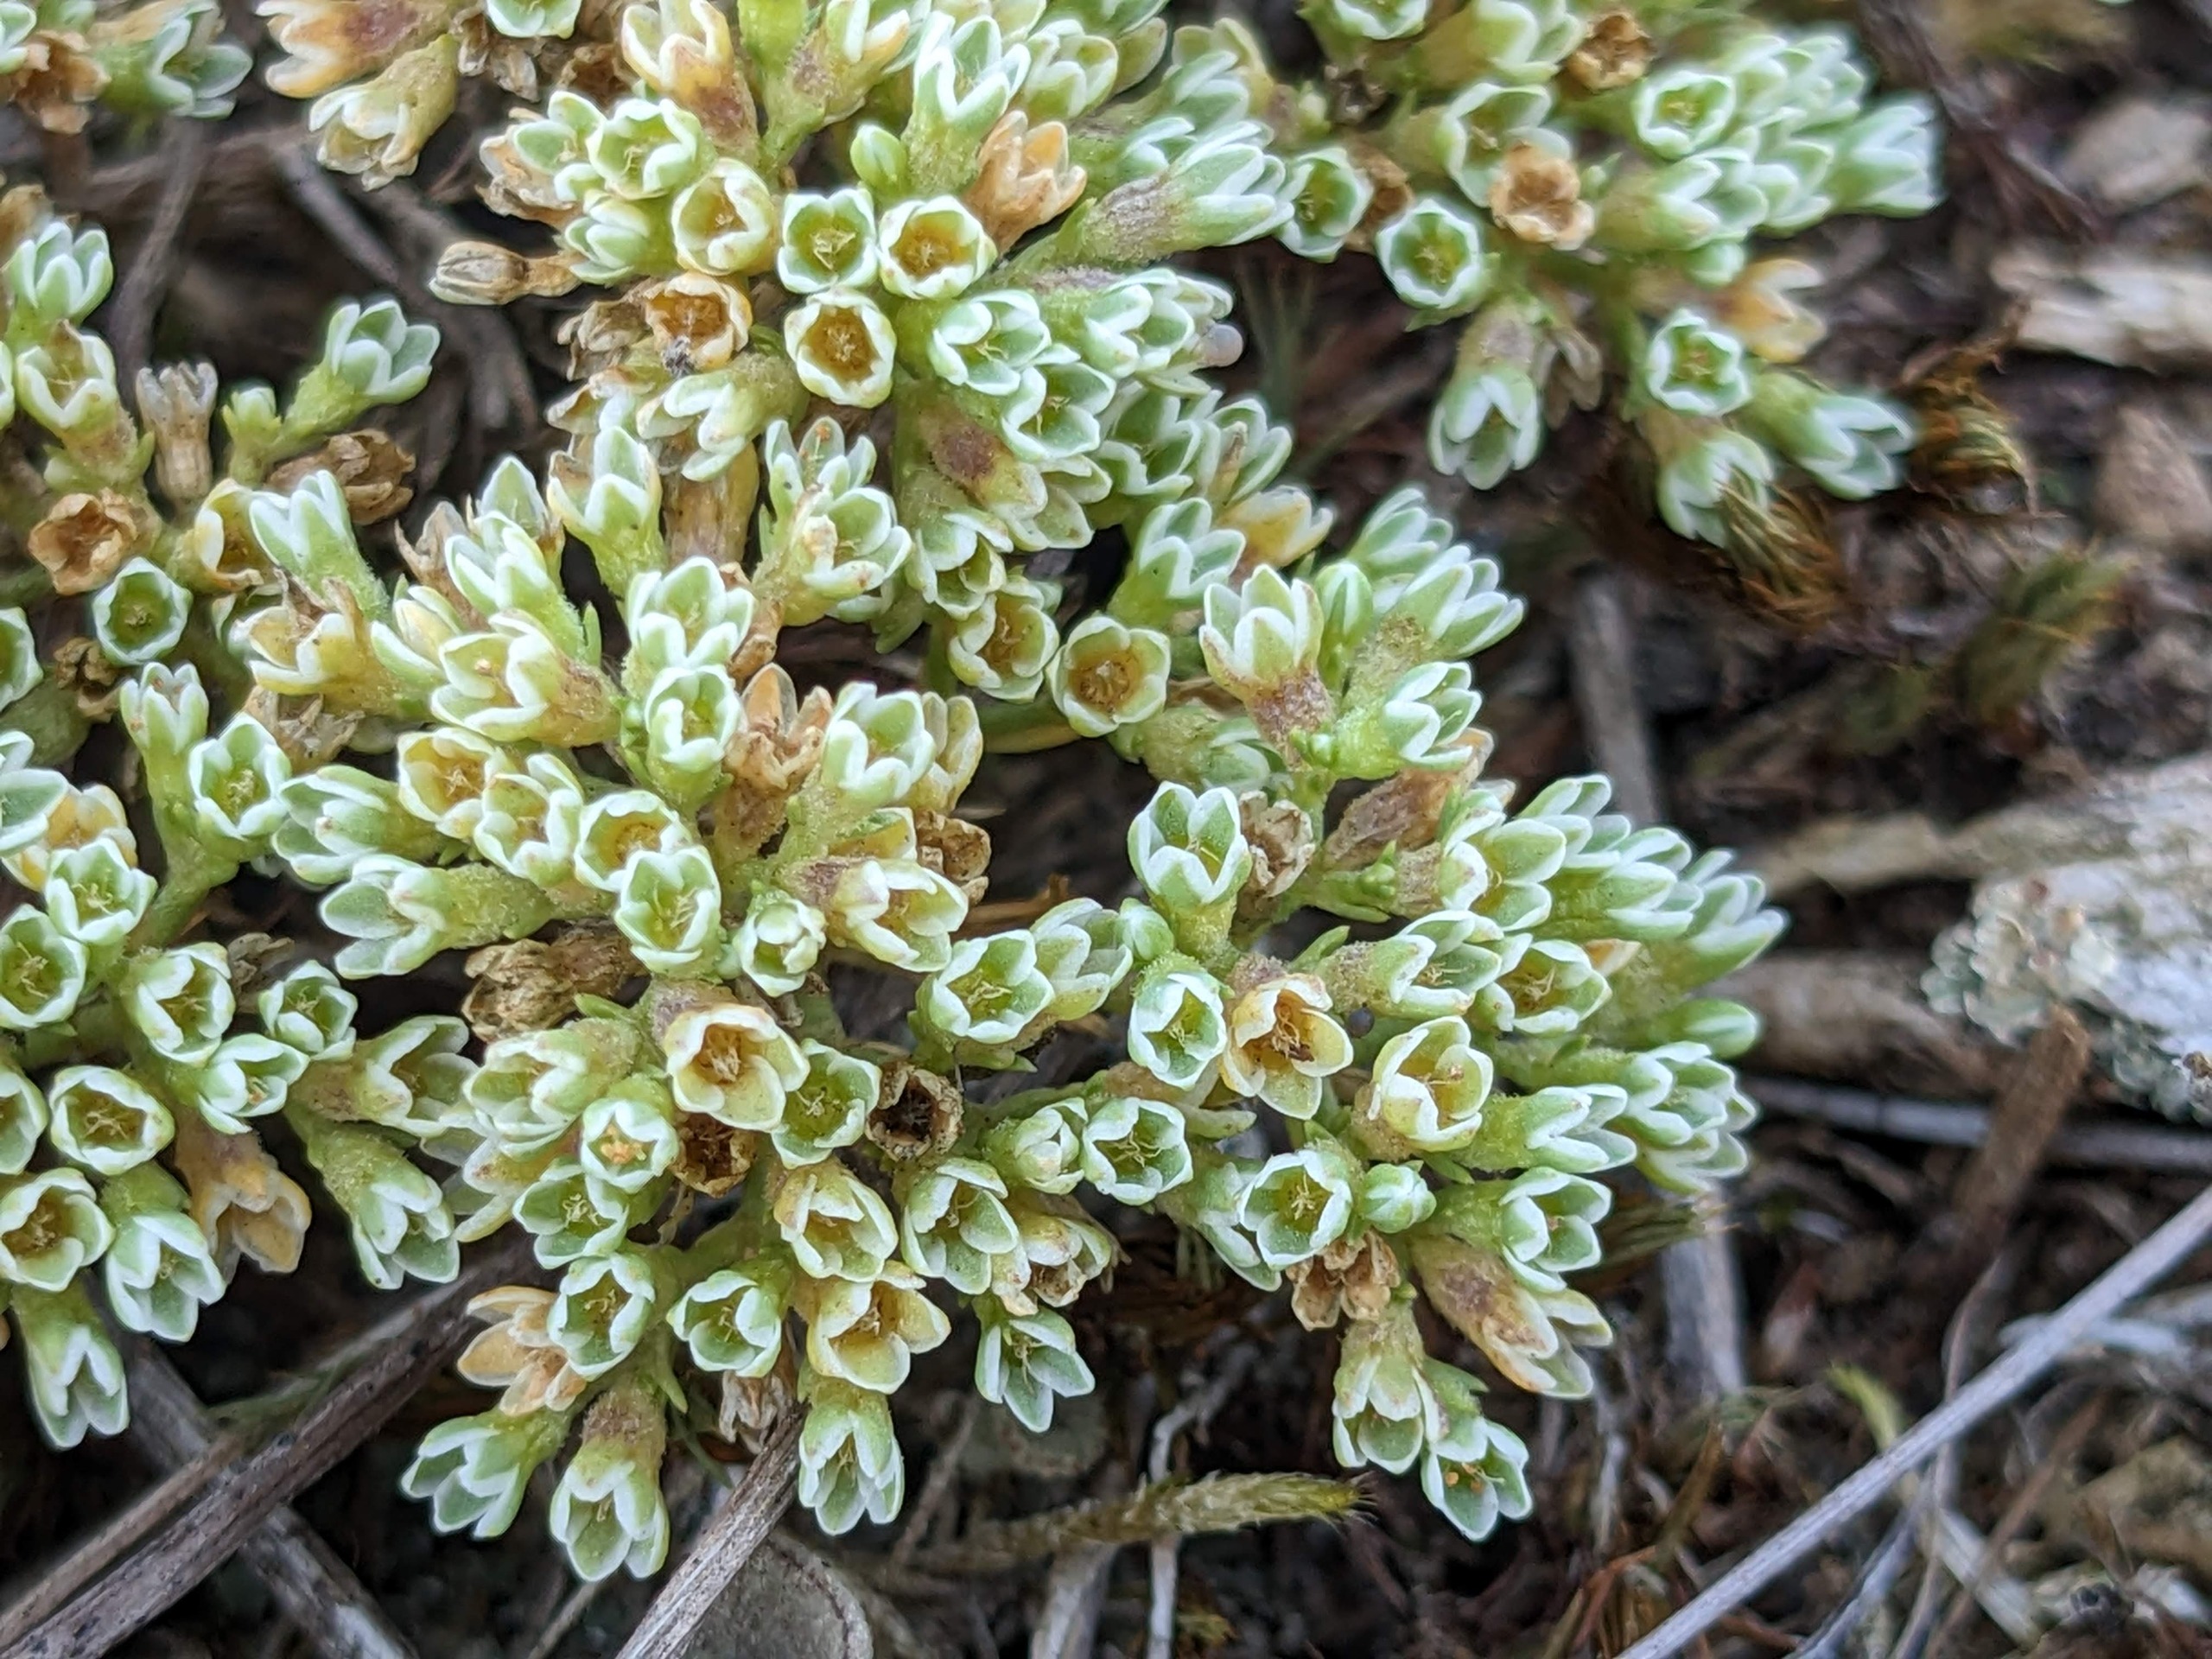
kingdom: Plantae
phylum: Tracheophyta
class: Magnoliopsida
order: Caryophyllales
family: Caryophyllaceae
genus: Scleranthus
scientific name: Scleranthus perennis
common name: Flerårig knavel
